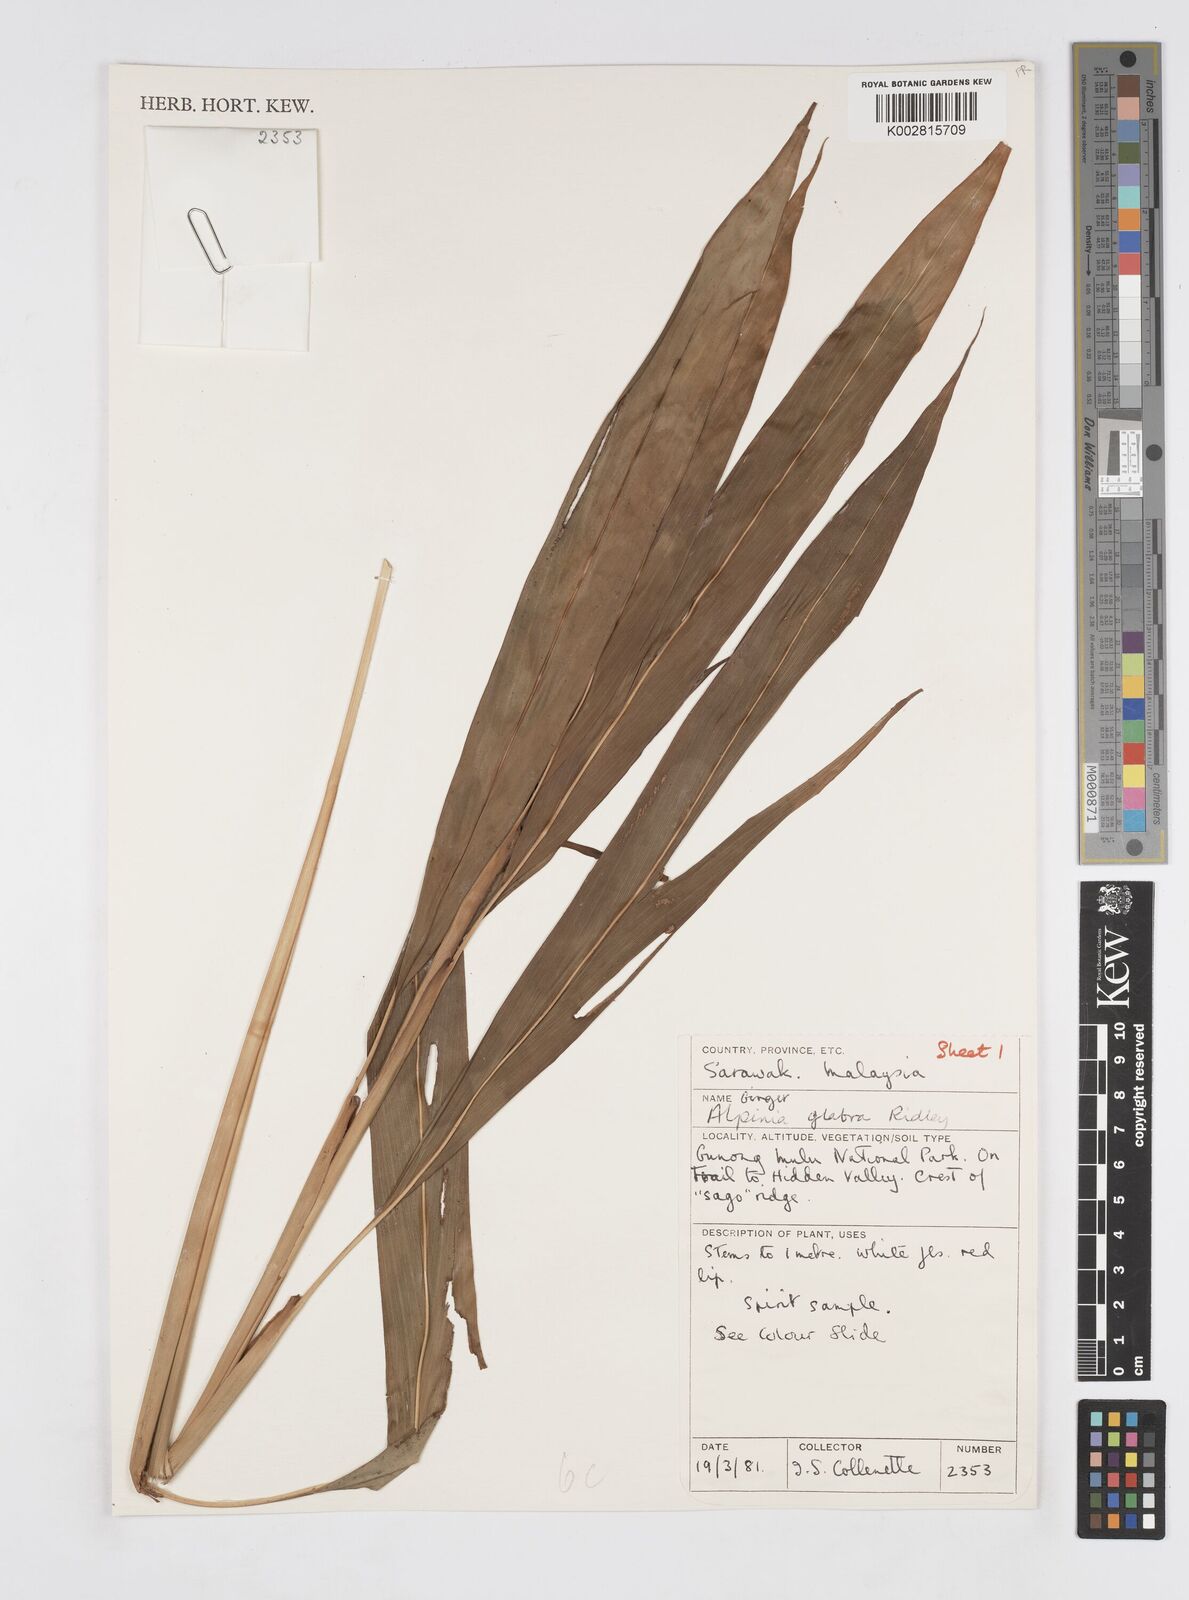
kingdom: Plantae
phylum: Tracheophyta
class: Liliopsida
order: Zingiberales
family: Zingiberaceae
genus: Alpinia
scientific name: Alpinia glabra
